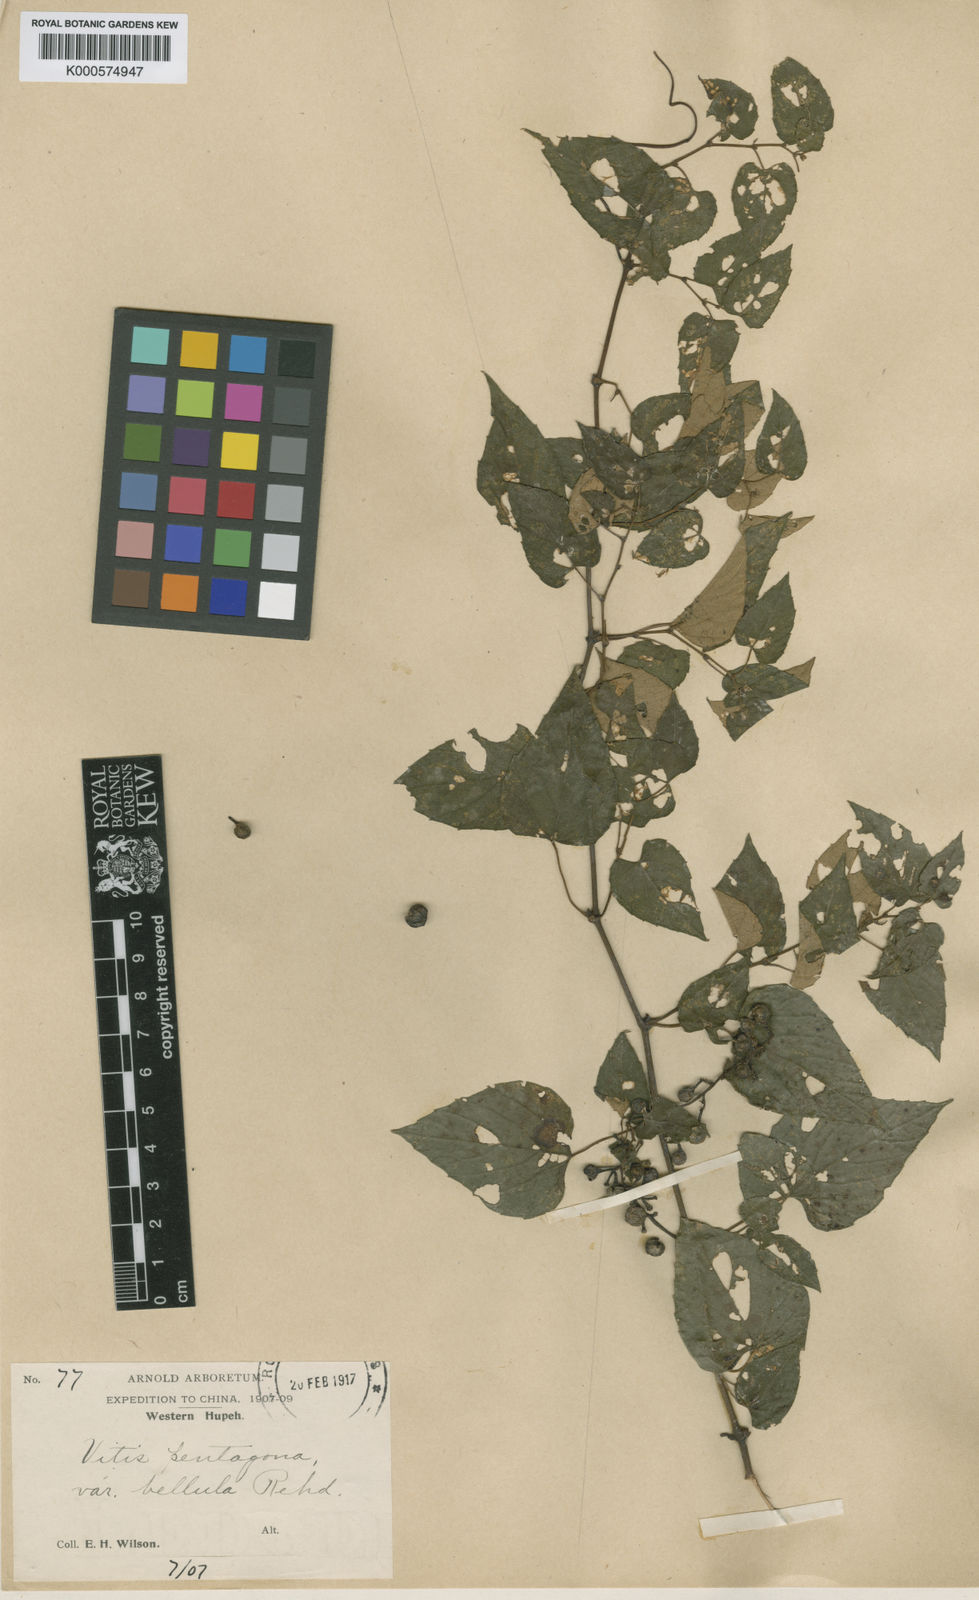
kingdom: Plantae
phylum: Tracheophyta
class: Magnoliopsida
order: Vitales
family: Vitaceae
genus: Cissus
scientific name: Cissus pentagona
